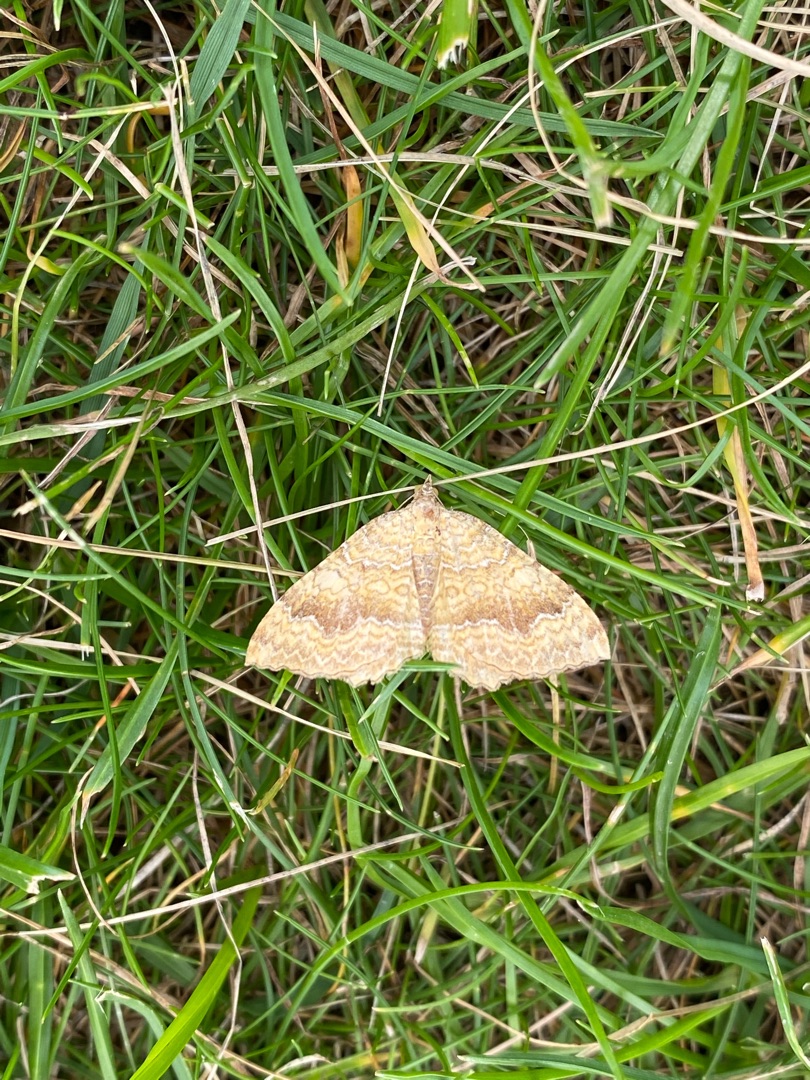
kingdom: Animalia
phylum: Arthropoda
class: Insecta
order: Lepidoptera
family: Geometridae
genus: Camptogramma
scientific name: Camptogramma bilineata
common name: Okkergul bladmåler
